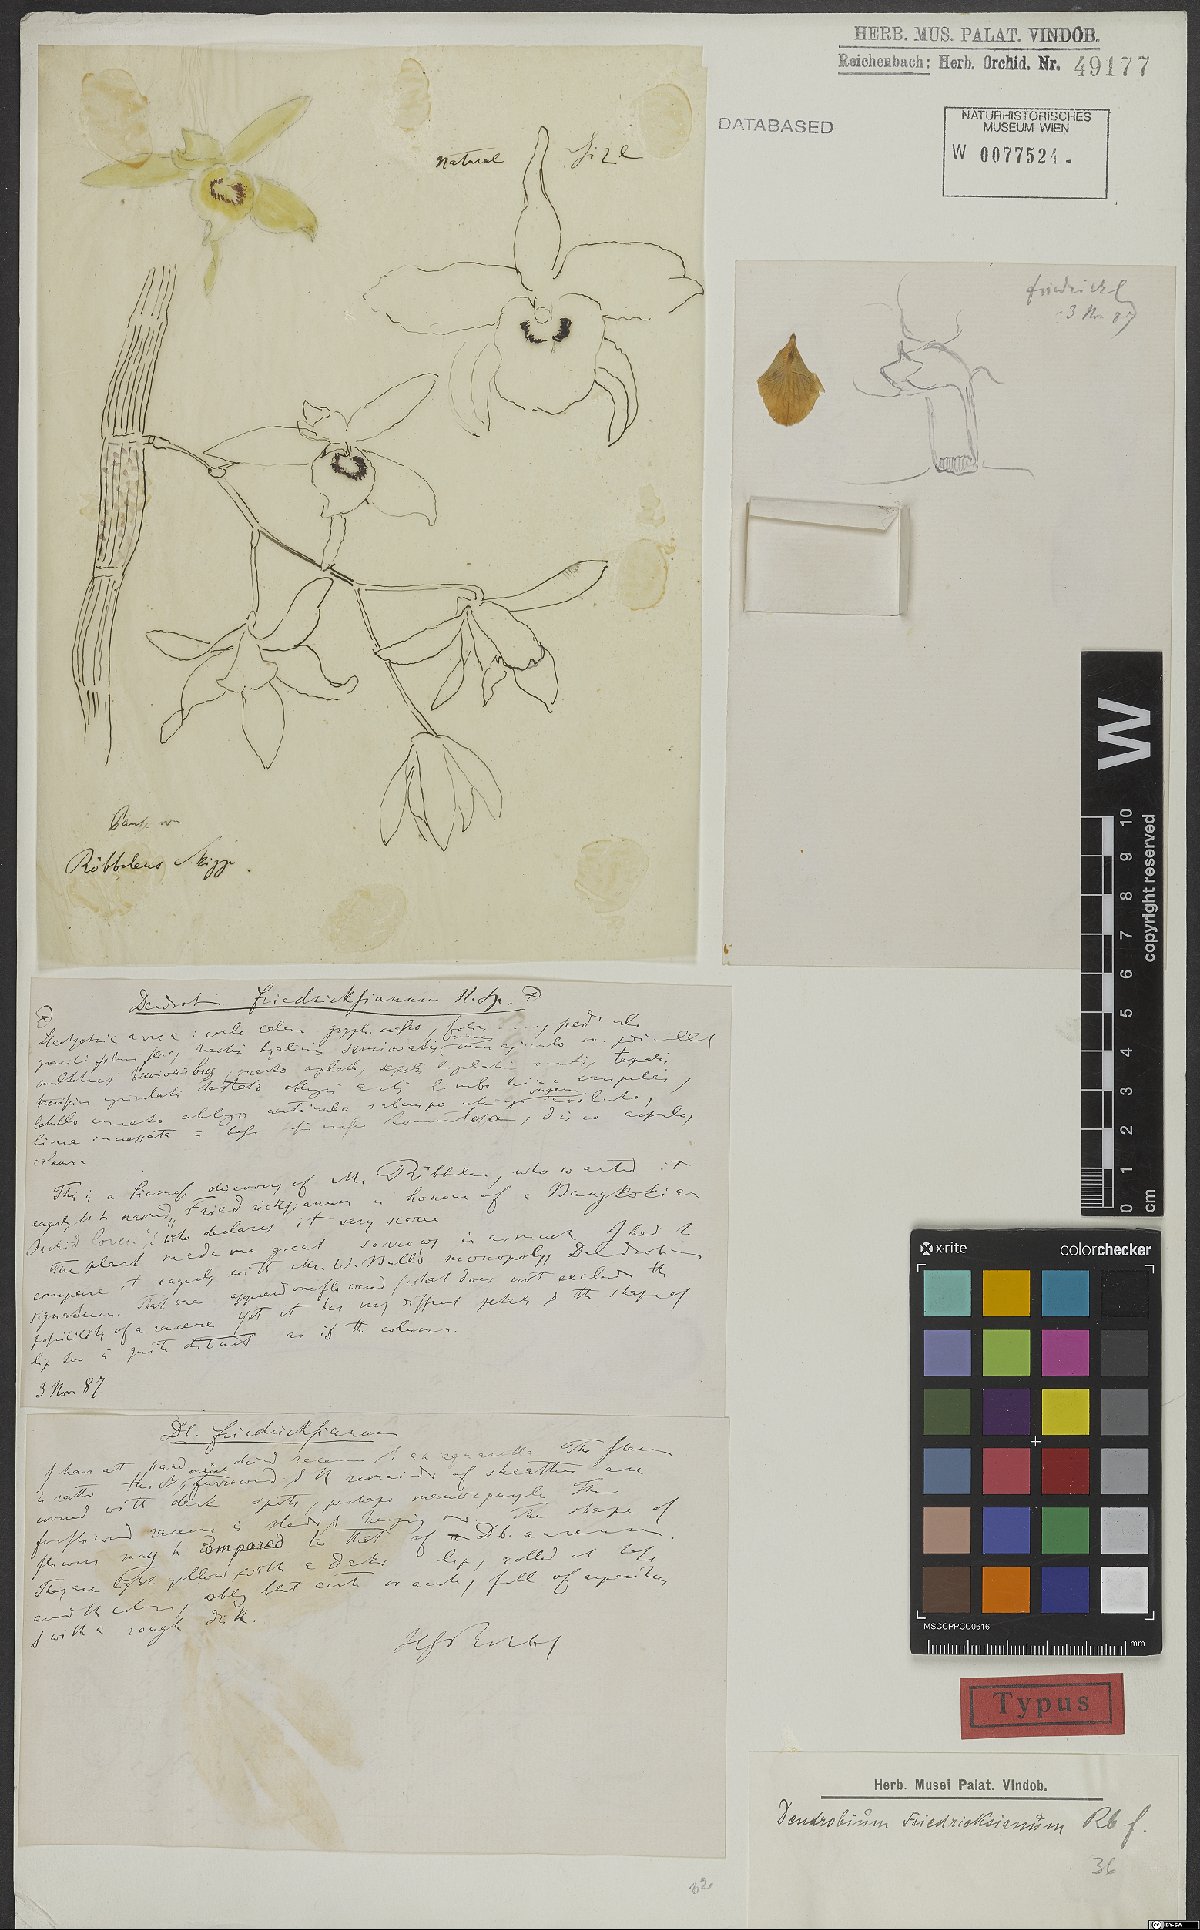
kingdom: Plantae
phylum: Tracheophyta
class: Liliopsida
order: Asparagales
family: Orchidaceae
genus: Dendrobium
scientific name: Dendrobium friedericksianum
